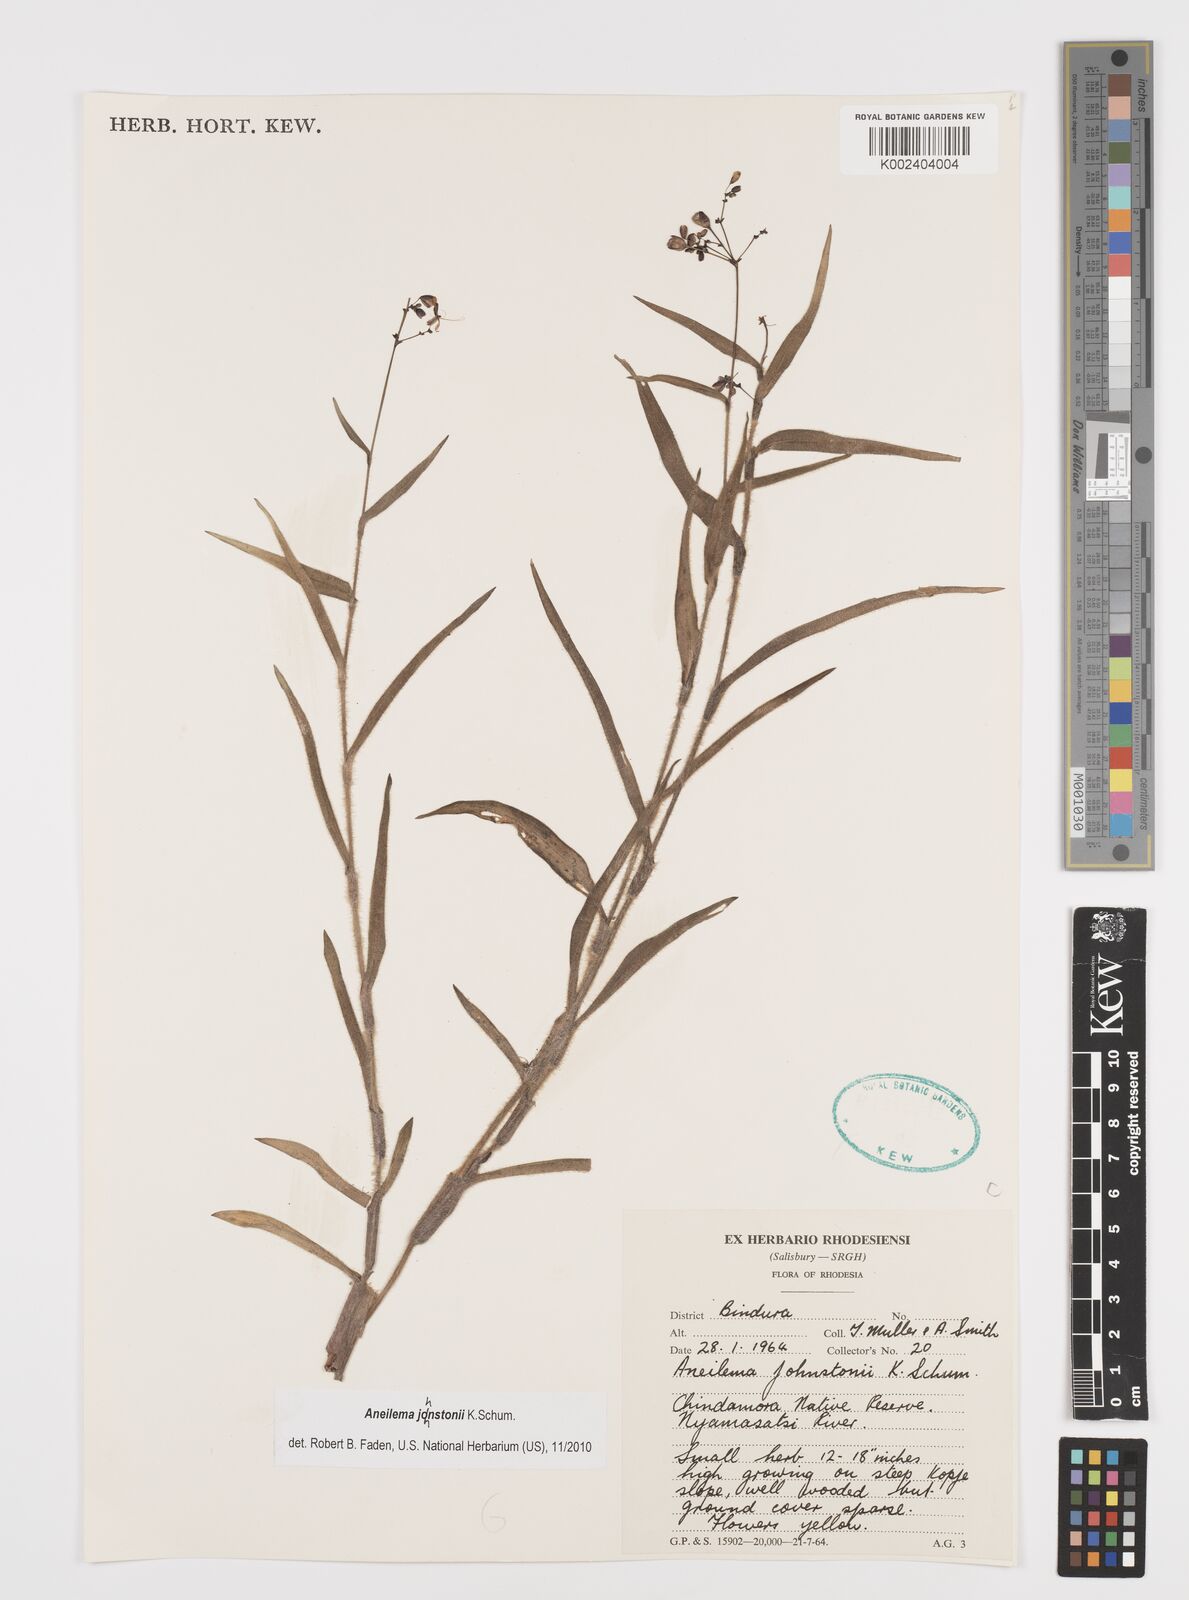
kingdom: Plantae
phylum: Tracheophyta
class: Liliopsida
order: Commelinales
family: Commelinaceae
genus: Aneilema
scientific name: Aneilema johnstonii
